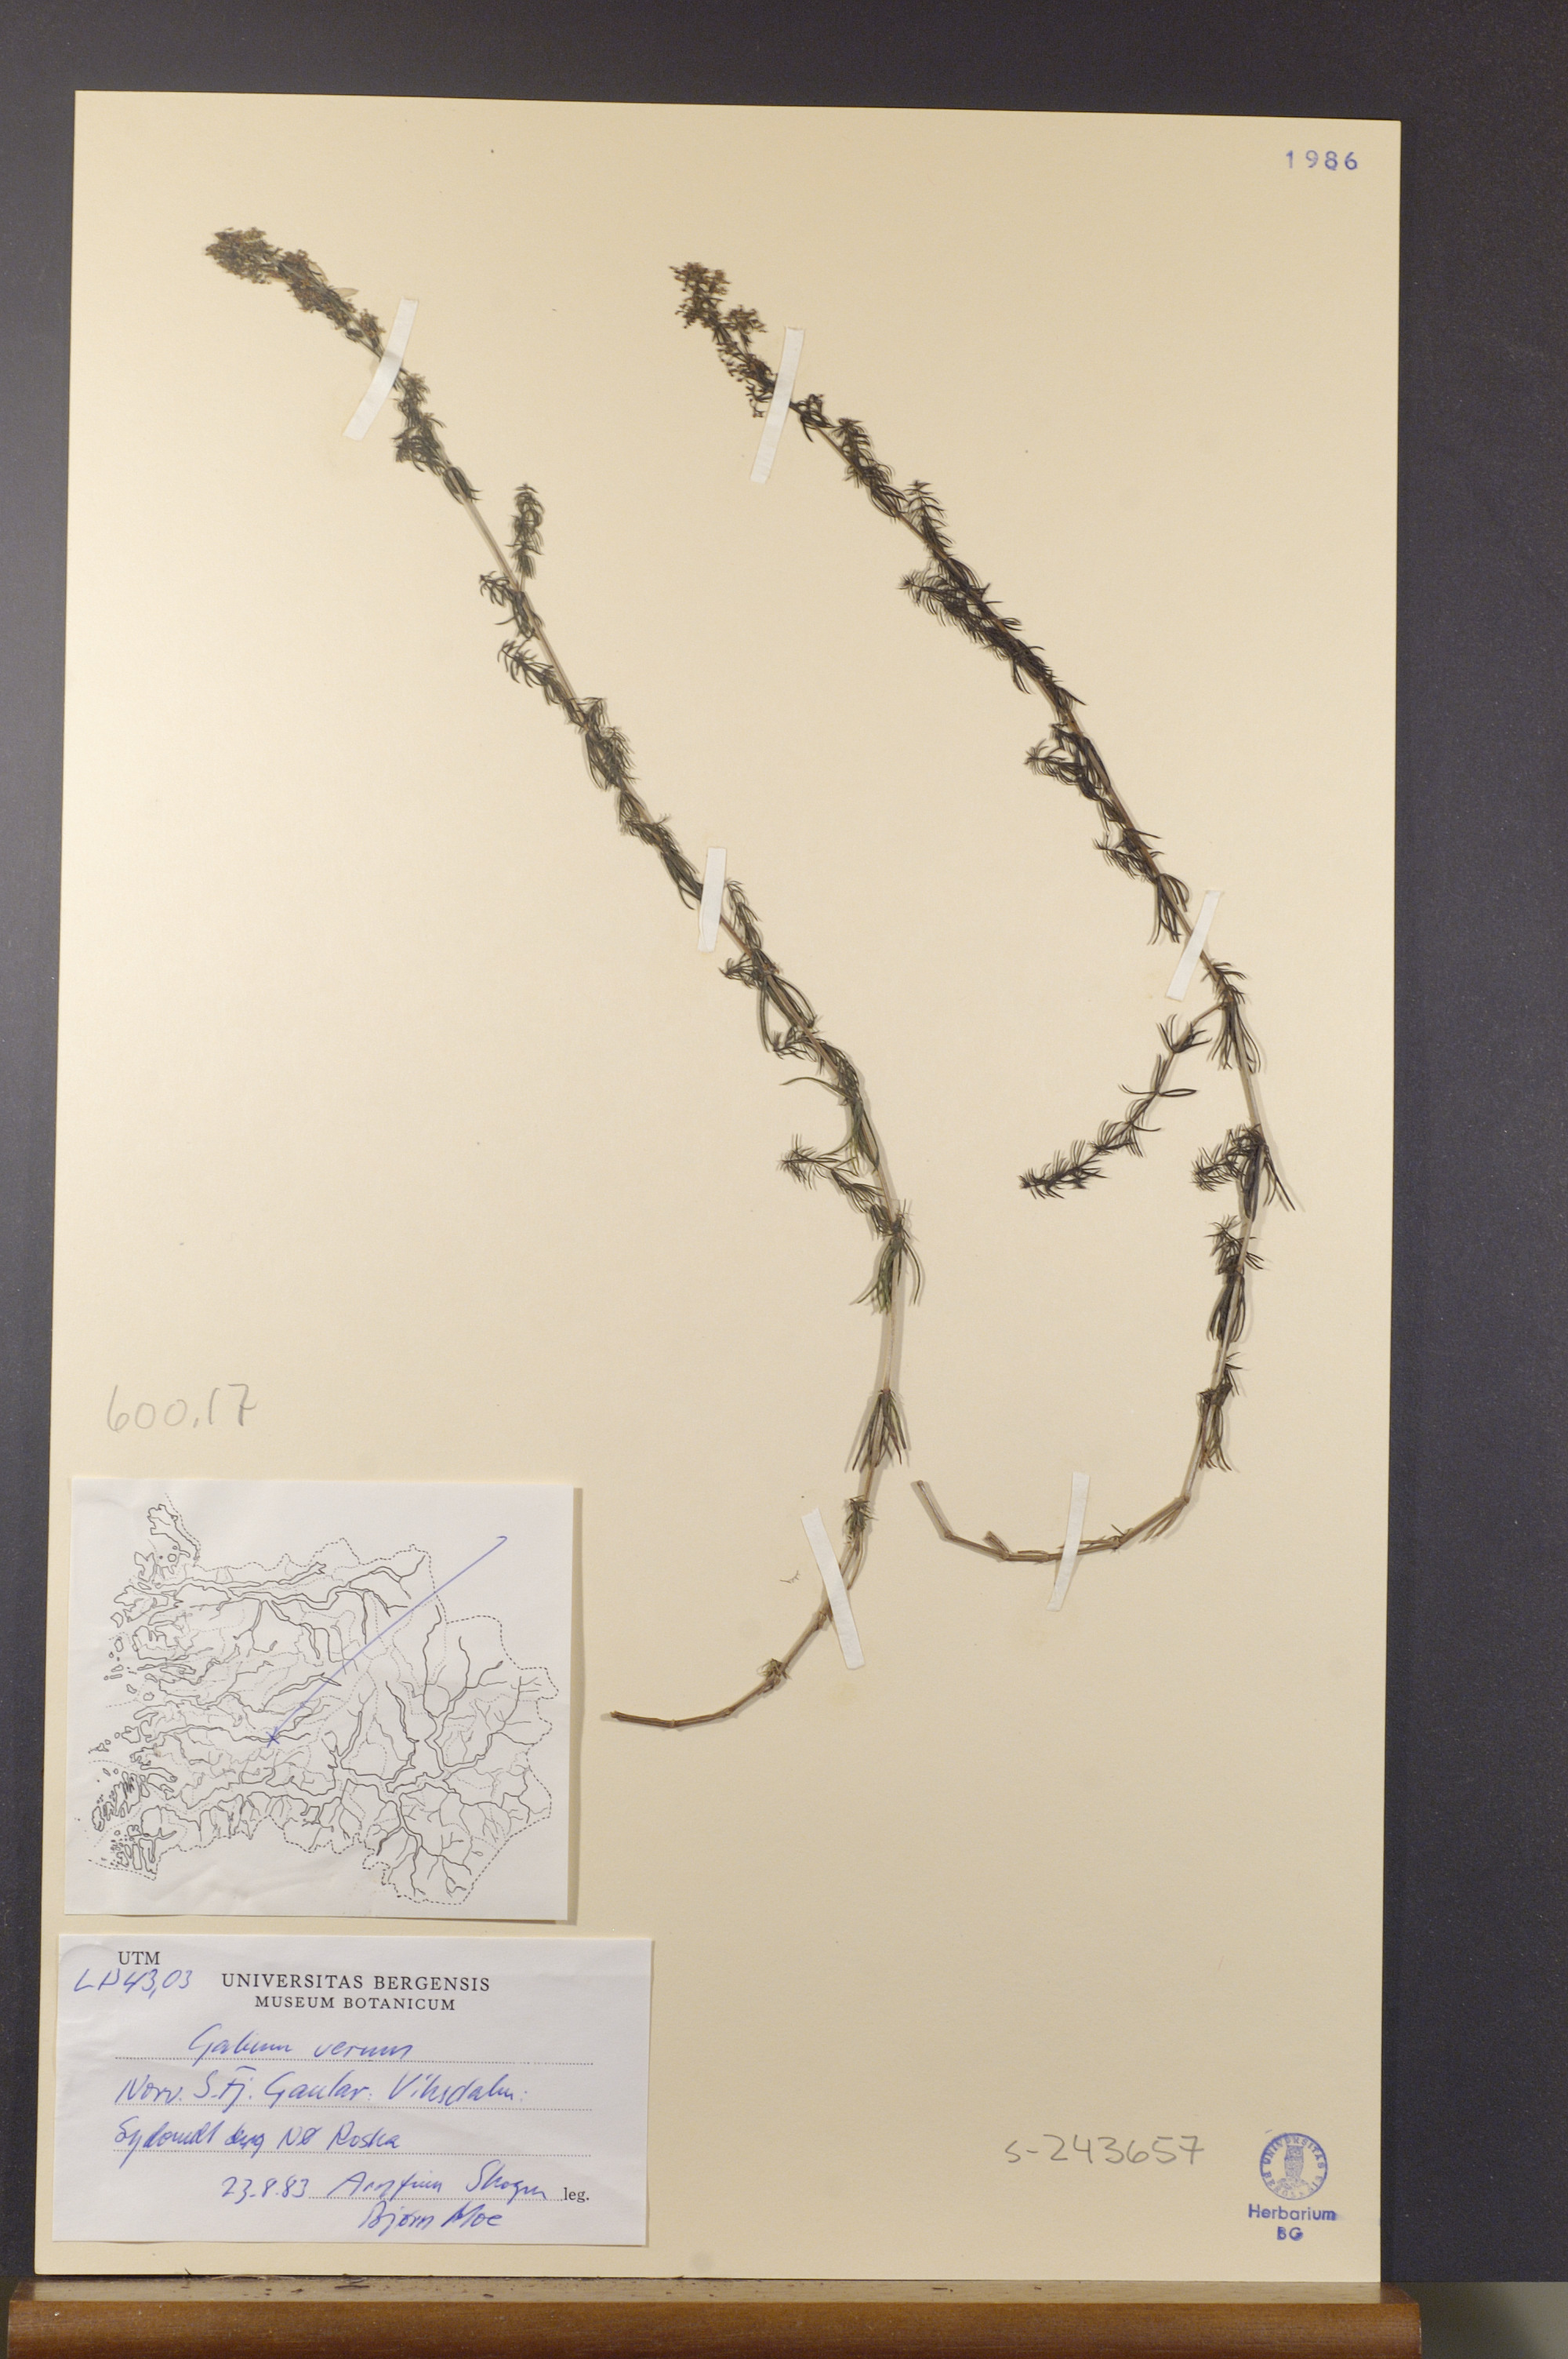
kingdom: Plantae
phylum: Tracheophyta
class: Magnoliopsida
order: Gentianales
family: Rubiaceae
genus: Galium
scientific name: Galium verum
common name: Lady's bedstraw
